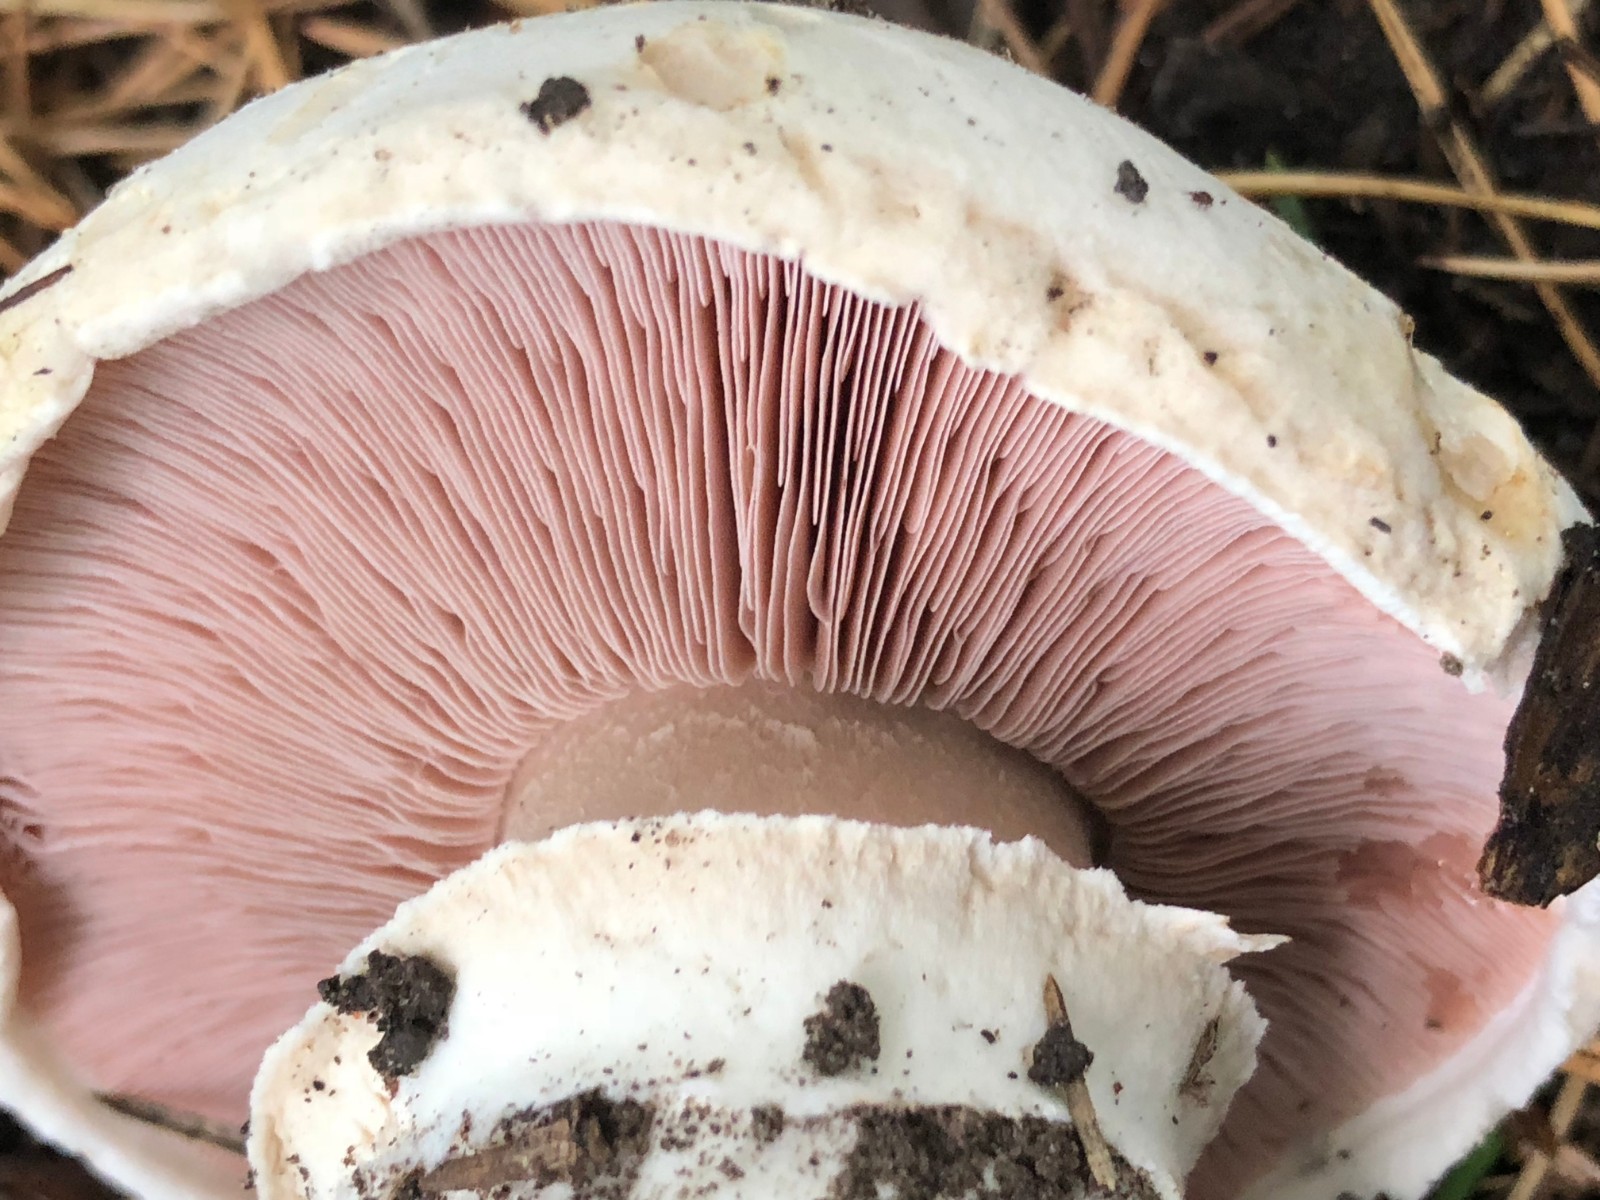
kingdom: Fungi
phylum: Basidiomycota
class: Agaricomycetes
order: Agaricales
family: Agaricaceae
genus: Agaricus
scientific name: Agaricus bitorquis
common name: vej-champignon
